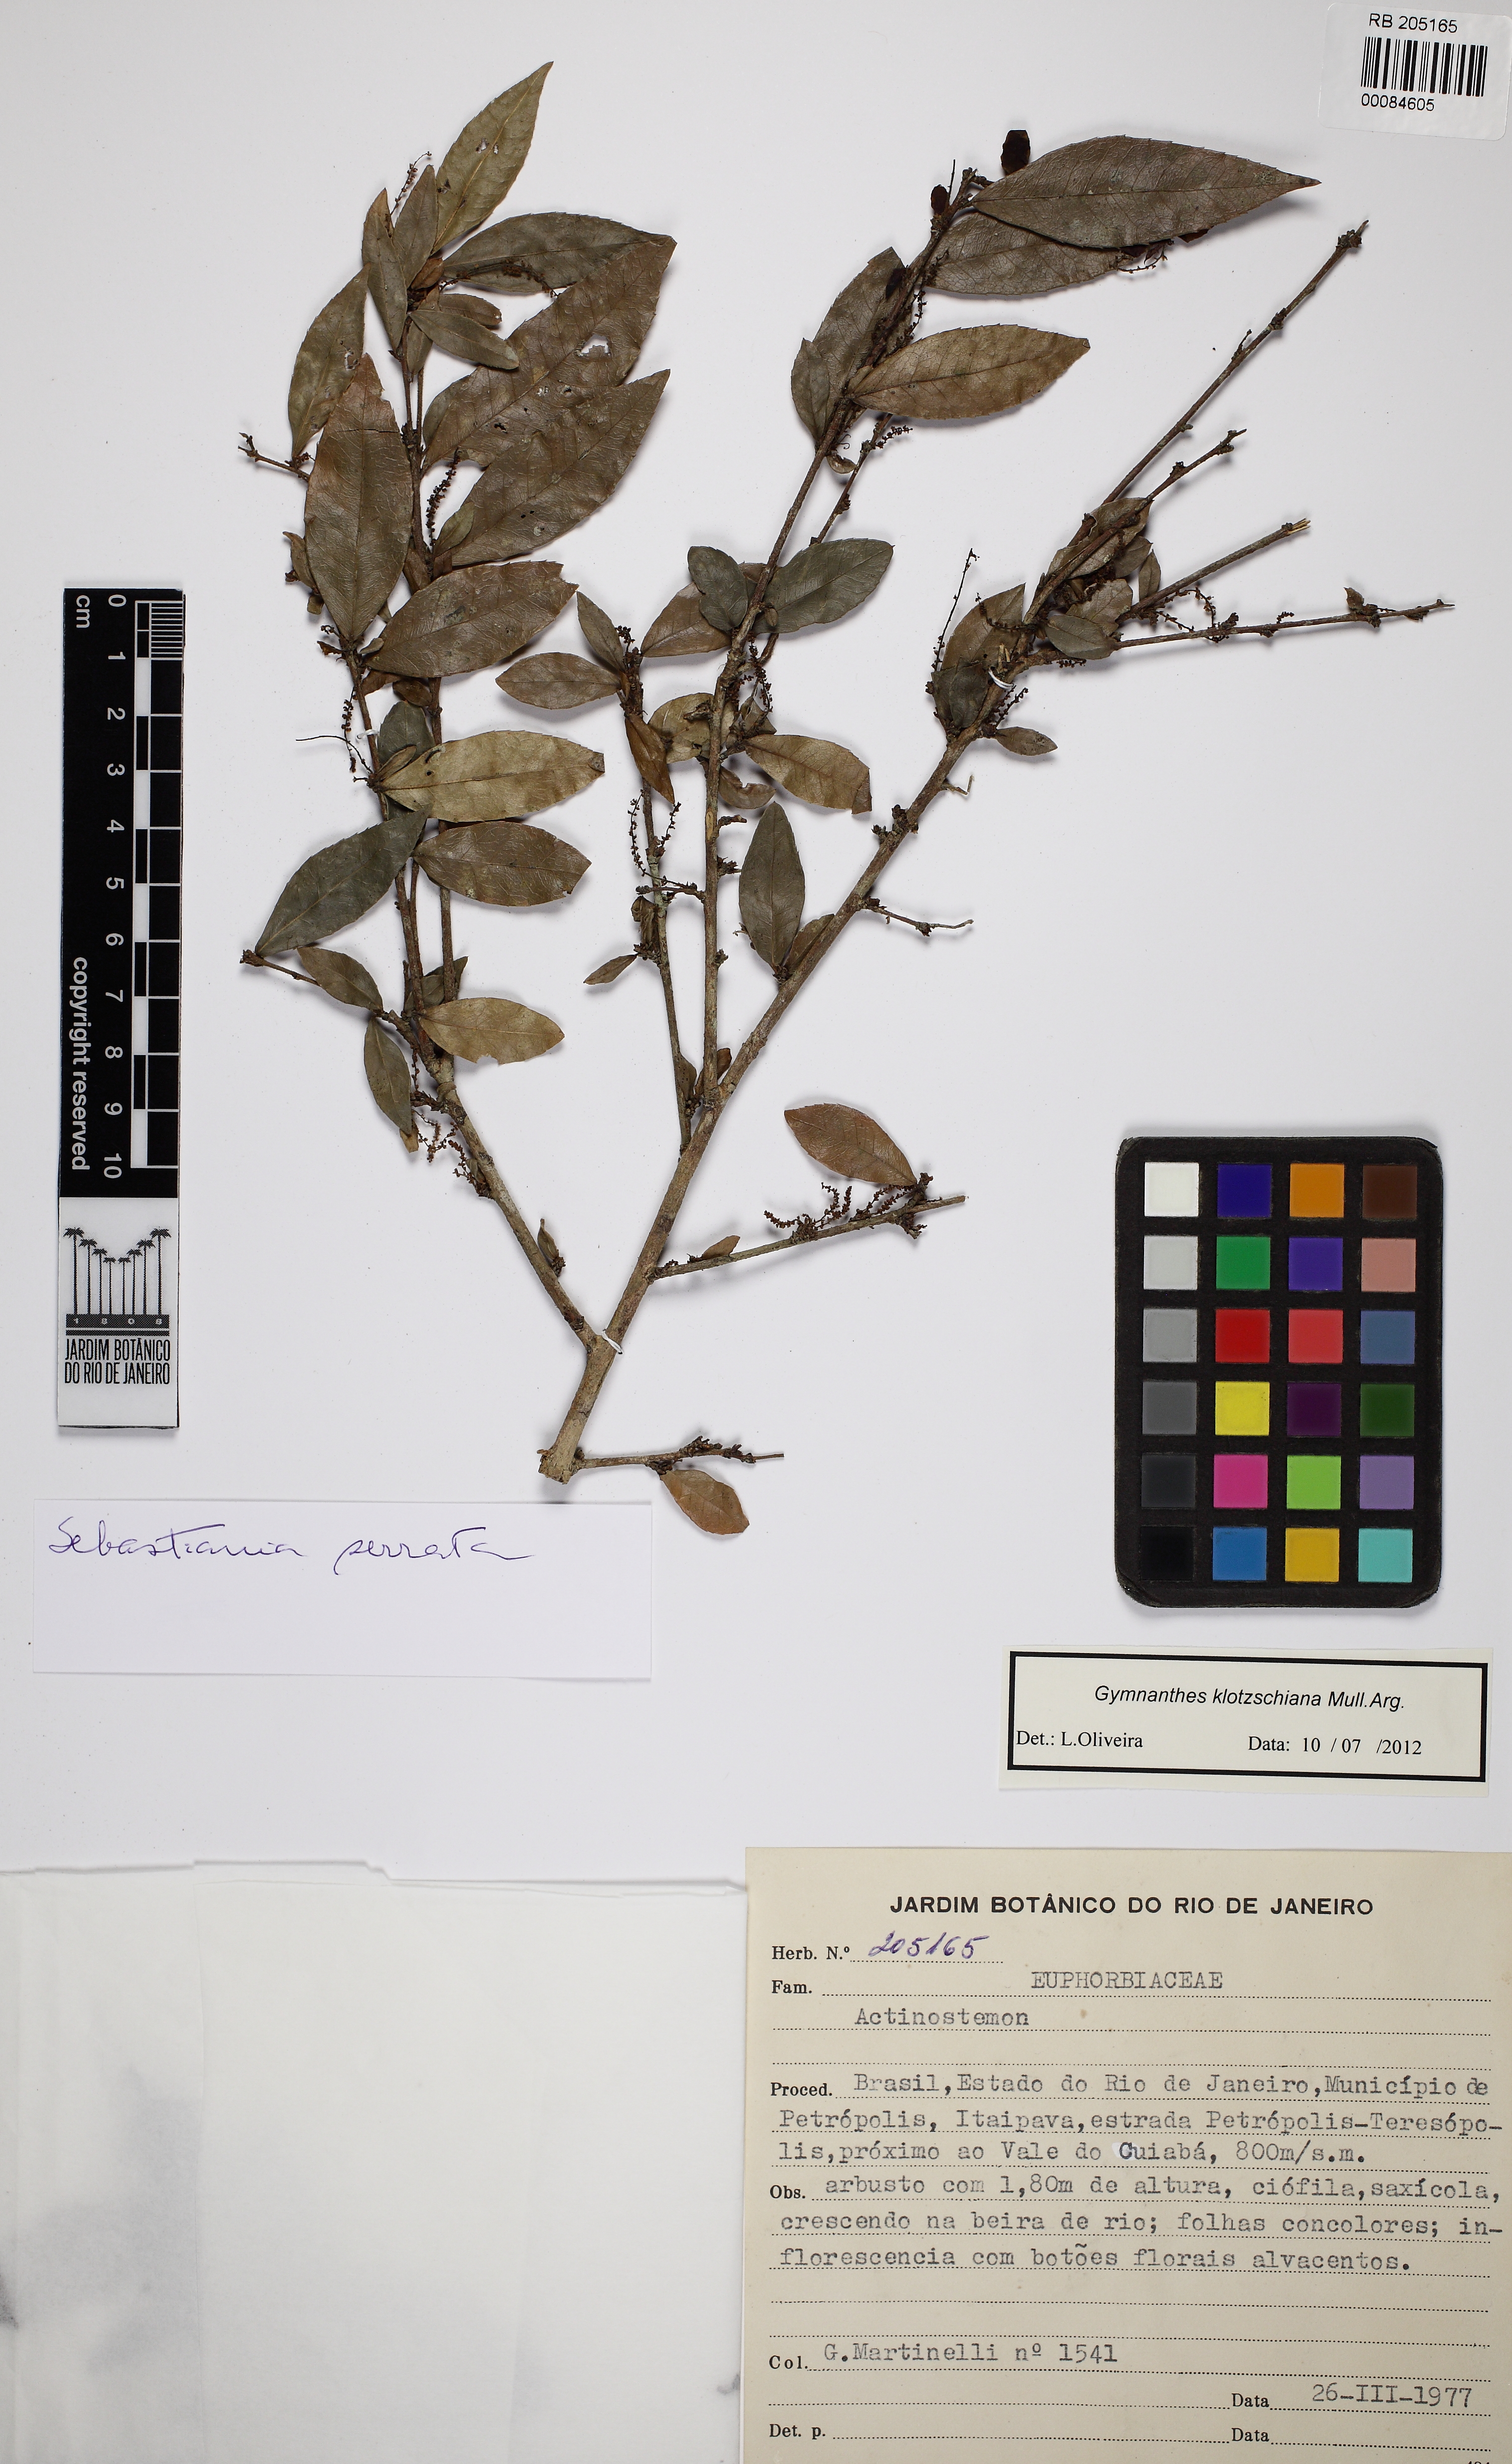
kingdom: Plantae
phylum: Tracheophyta
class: Magnoliopsida
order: Malpighiales
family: Euphorbiaceae
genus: Sebastiania
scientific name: Sebastiania serrata
